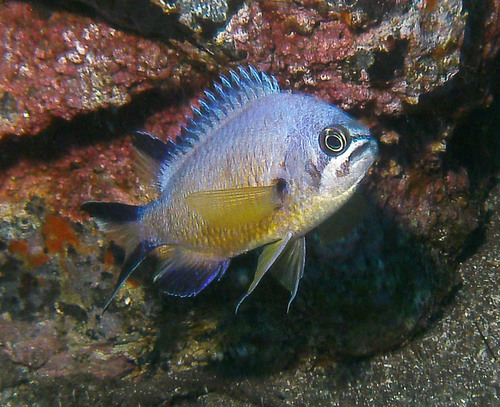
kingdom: Animalia
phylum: Chordata
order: Perciformes
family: Pomacentridae
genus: Chromis
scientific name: Chromis limbata
